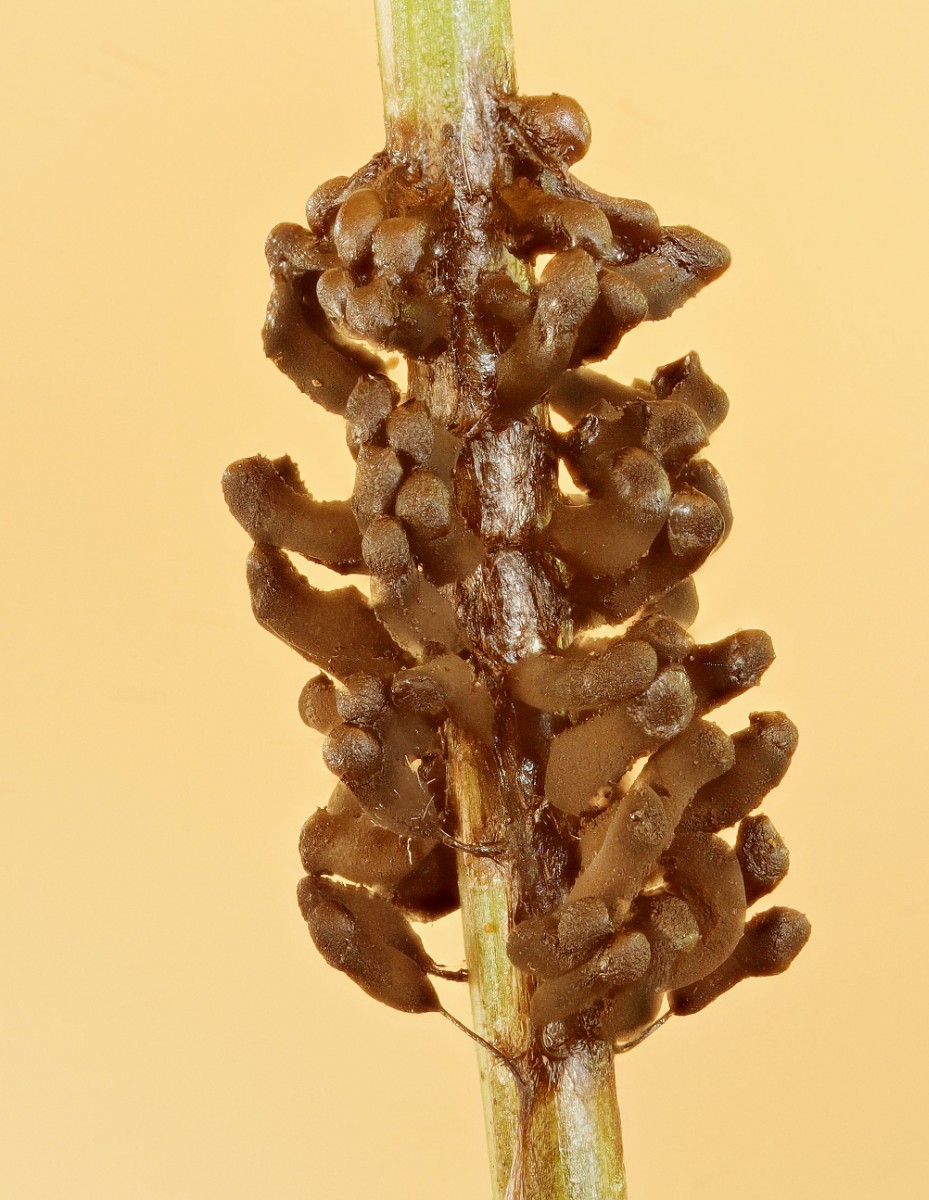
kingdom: Protozoa
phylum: Mycetozoa
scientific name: Mycetozoa
